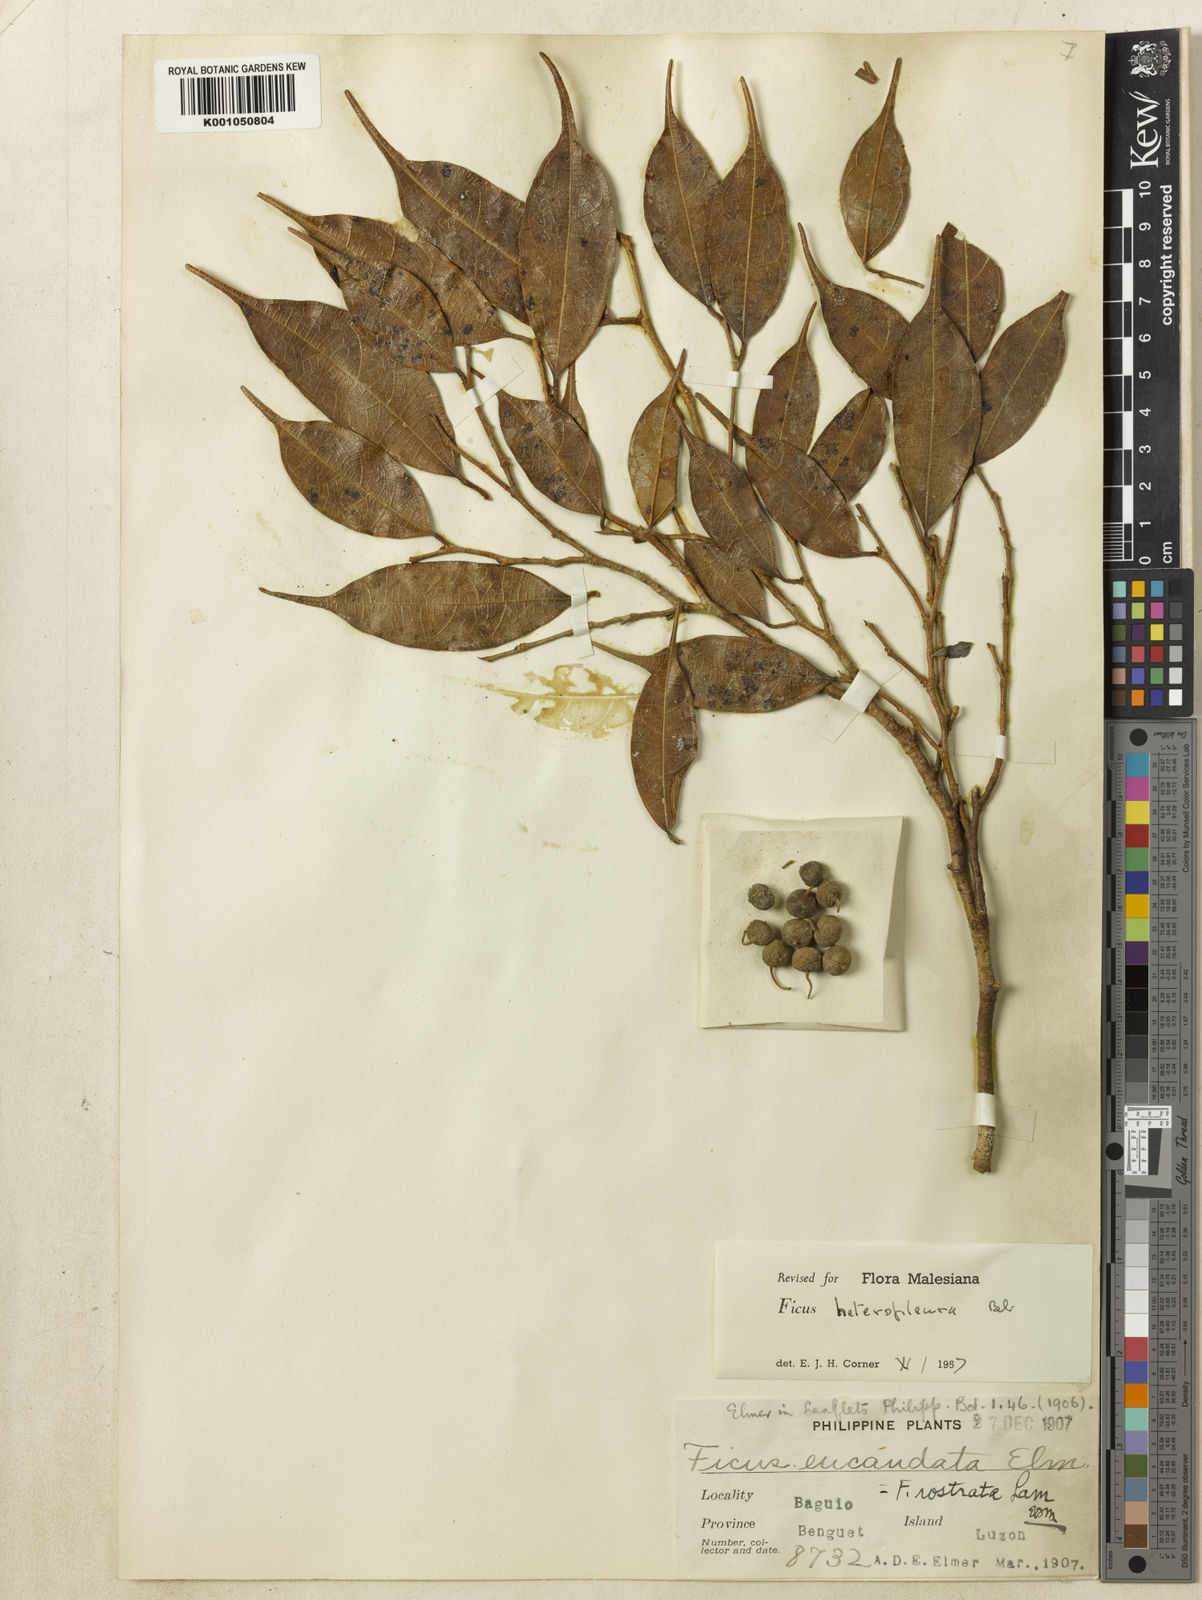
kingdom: Plantae
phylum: Tracheophyta
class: Magnoliopsida
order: Rosales
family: Moraceae
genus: Ficus
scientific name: Ficus heteropleura
